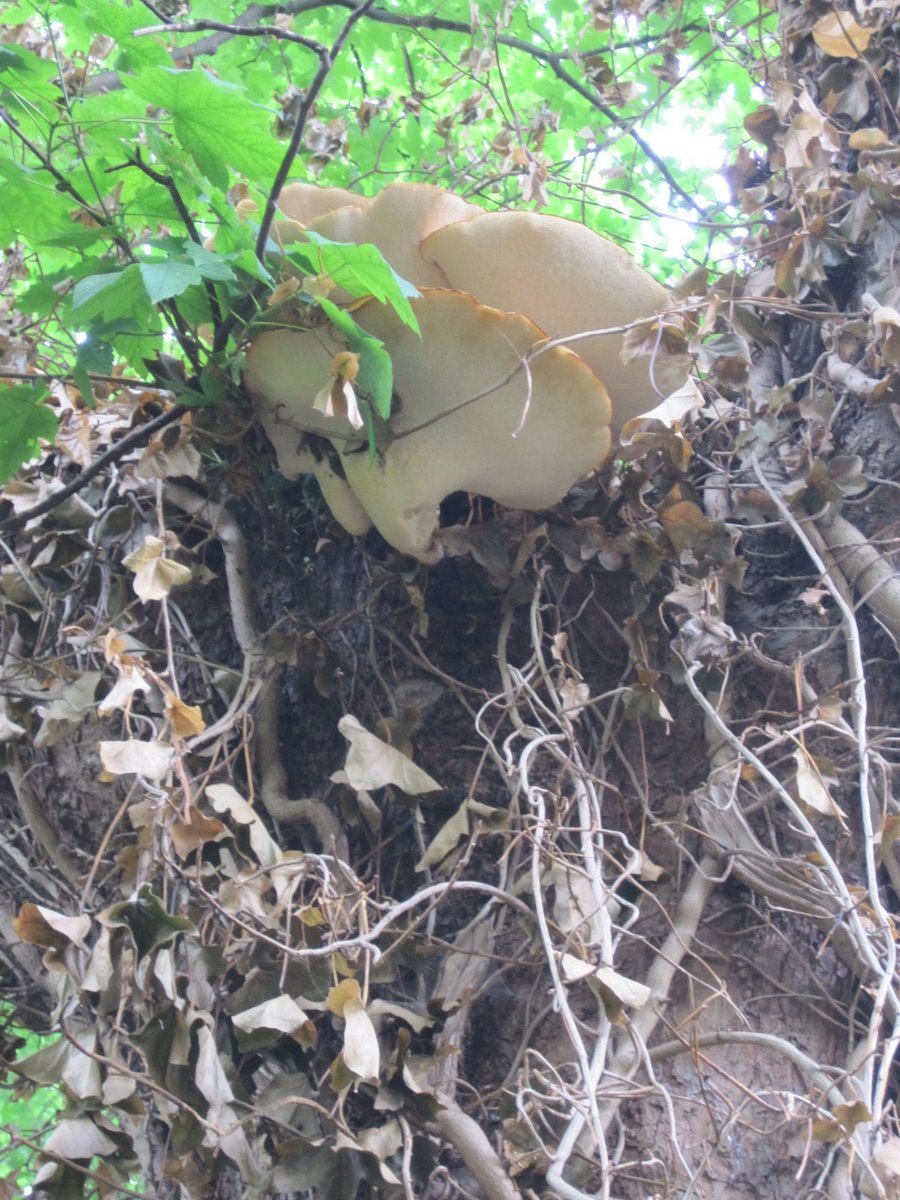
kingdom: Fungi
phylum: Basidiomycota
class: Agaricomycetes
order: Polyporales
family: Polyporaceae
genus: Cerioporus
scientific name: Cerioporus squamosus
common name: skællet stilkporesvamp
